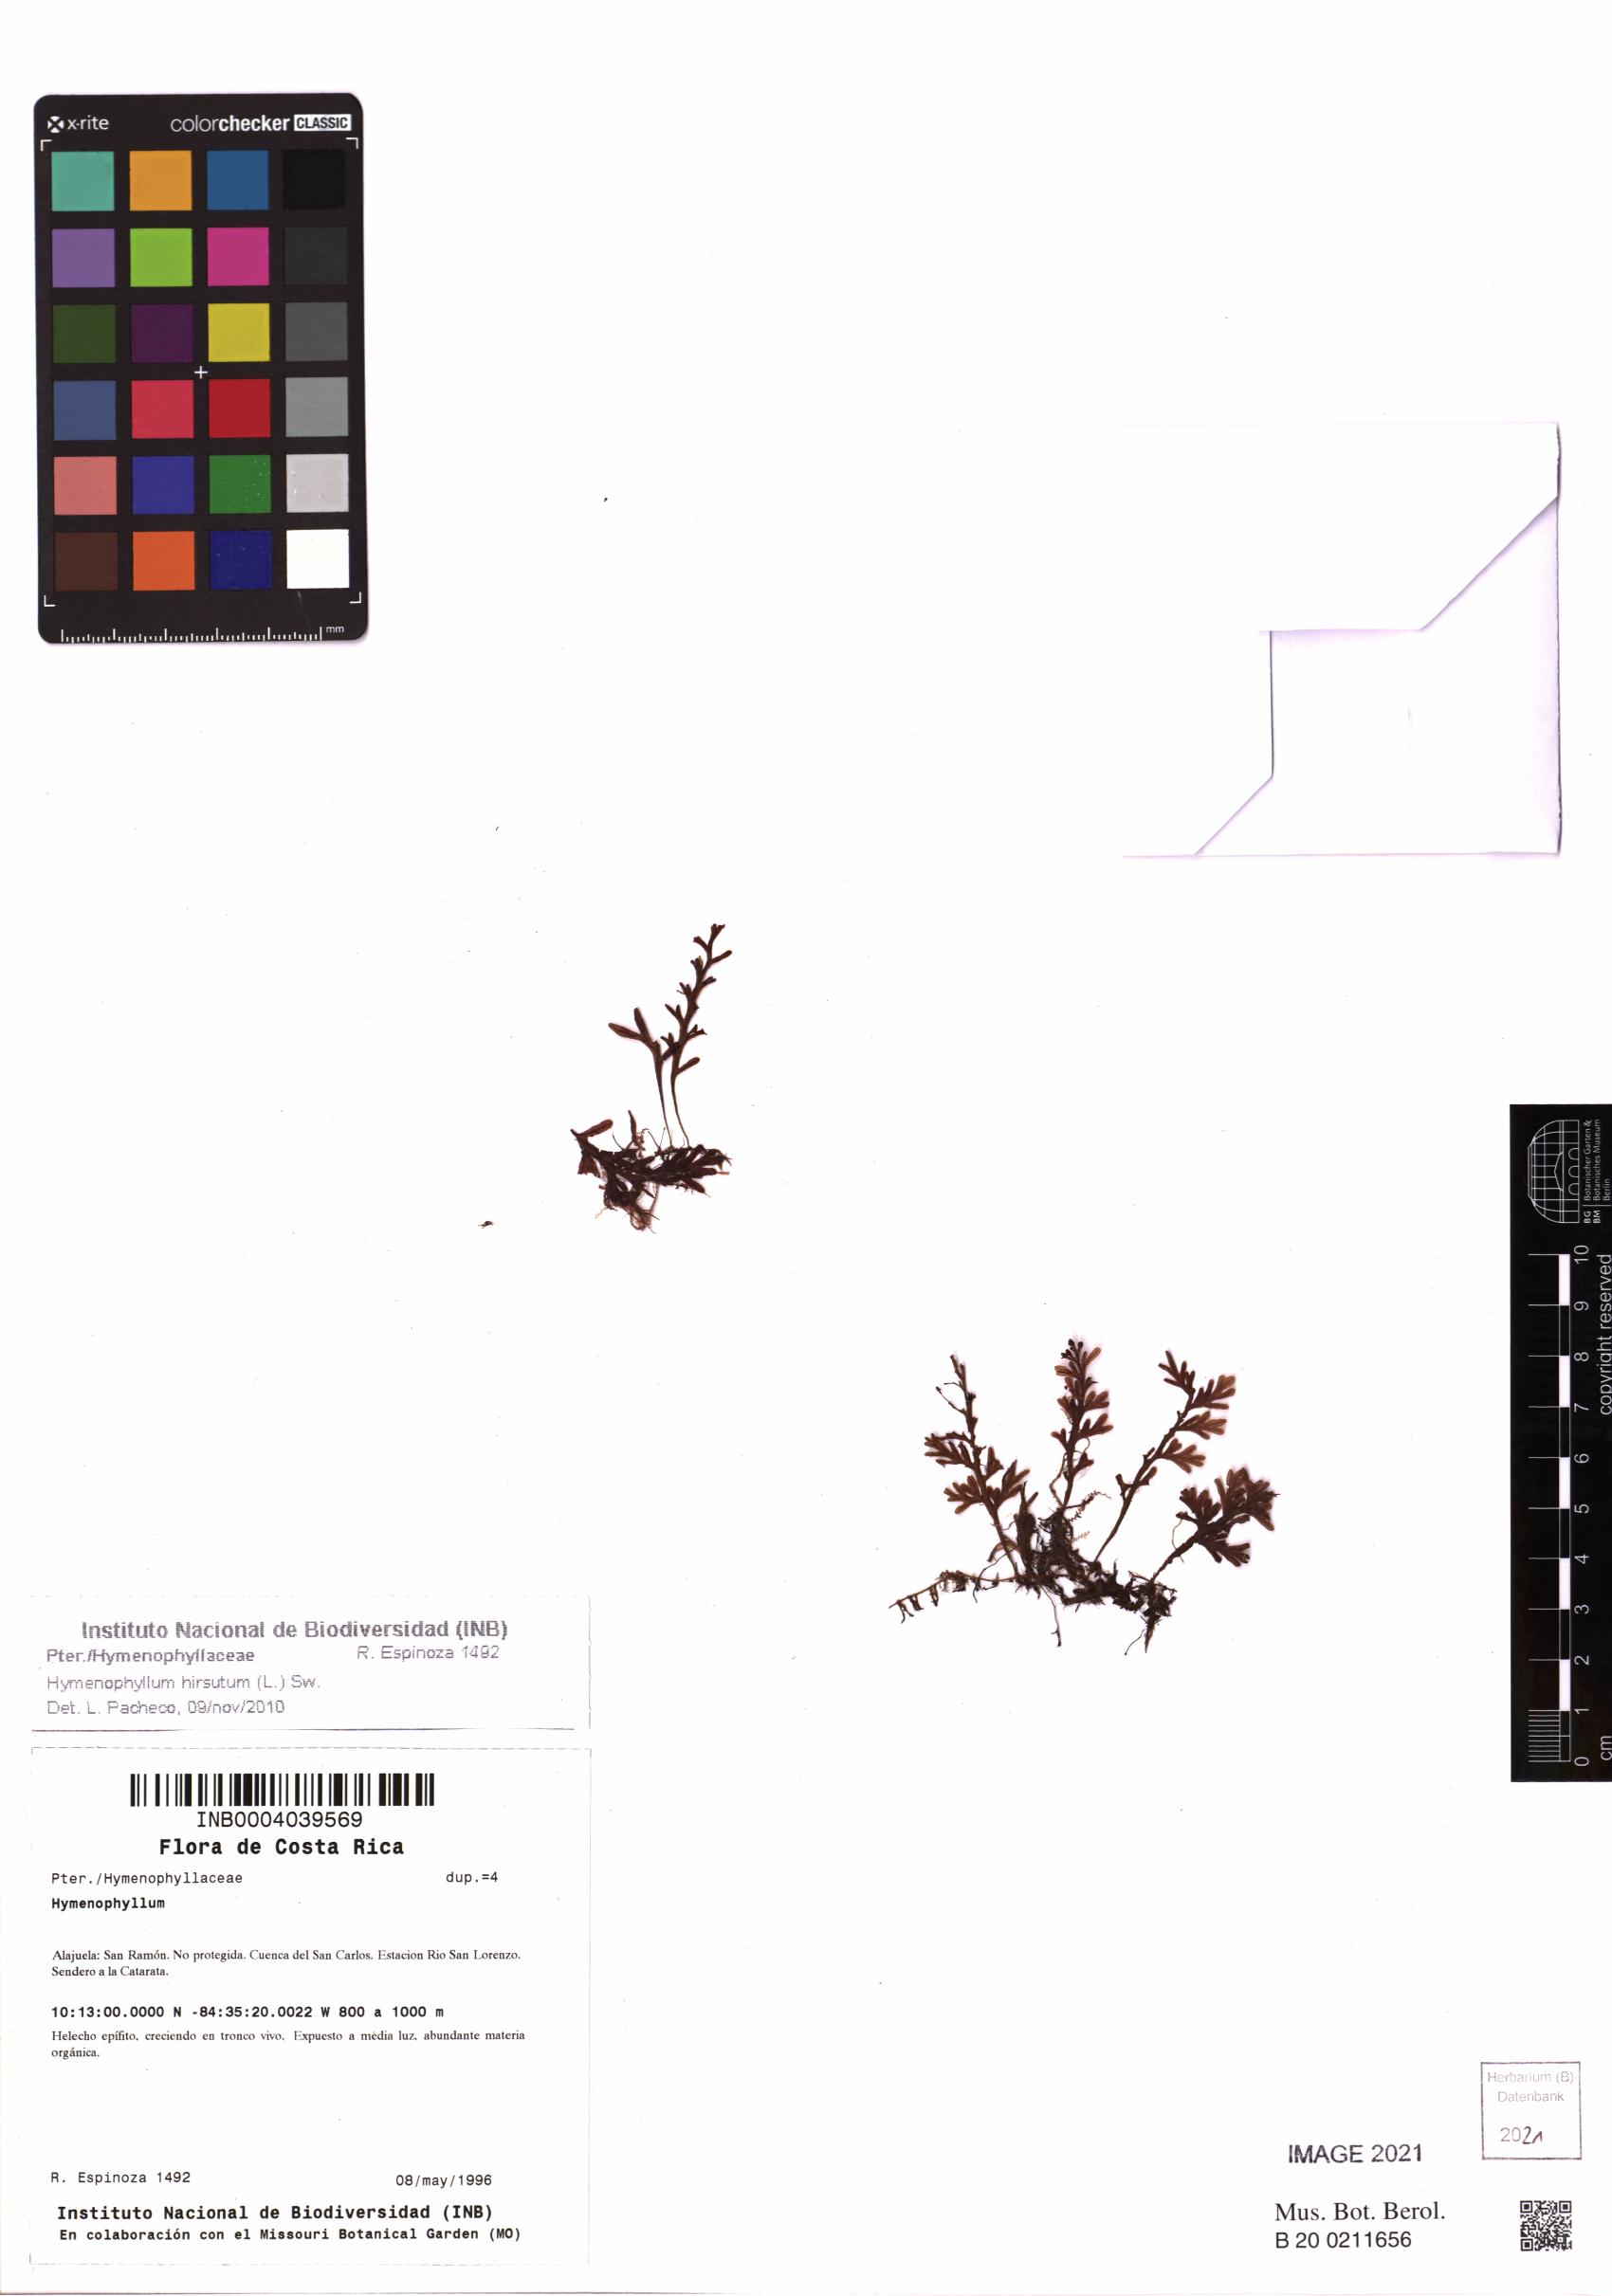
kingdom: Plantae
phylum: Tracheophyta
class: Polypodiopsida
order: Hymenophyllales
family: Hymenophyllaceae
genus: Hymenophyllum
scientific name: Hymenophyllum hirsutum
